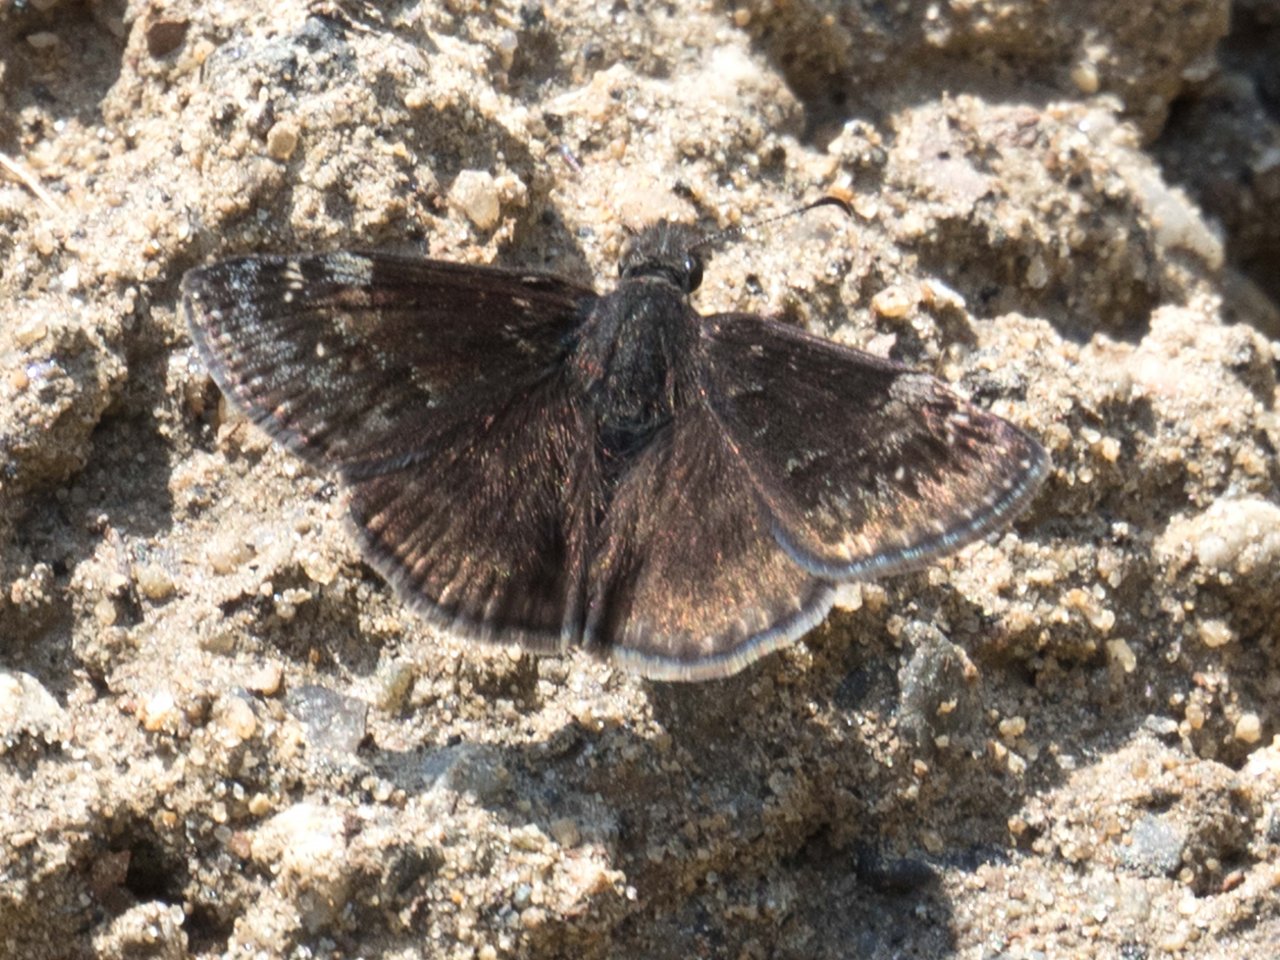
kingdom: Animalia
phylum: Arthropoda
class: Insecta
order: Lepidoptera
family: Hesperiidae
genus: Gesta
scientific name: Gesta
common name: Wild Indigo Duskywing
